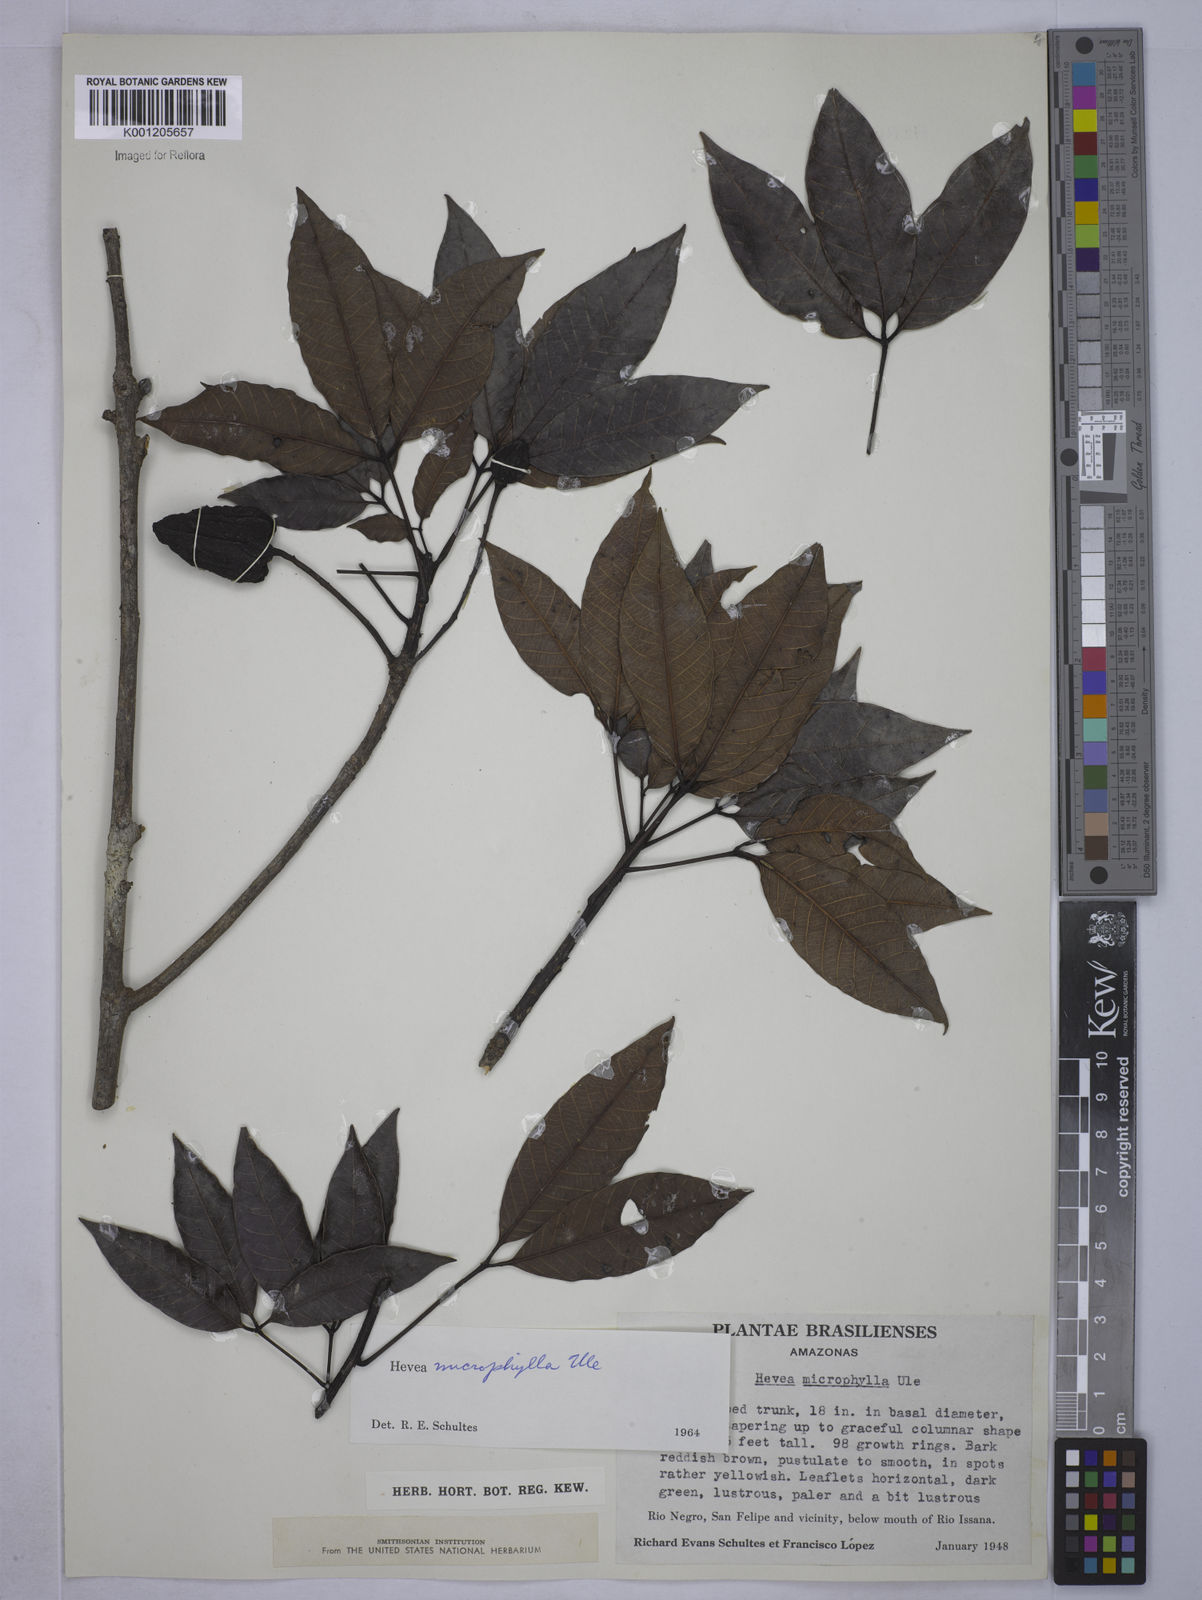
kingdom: Plantae
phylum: Tracheophyta
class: Magnoliopsida
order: Malpighiales
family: Euphorbiaceae
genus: Hevea
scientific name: Hevea microphylla
